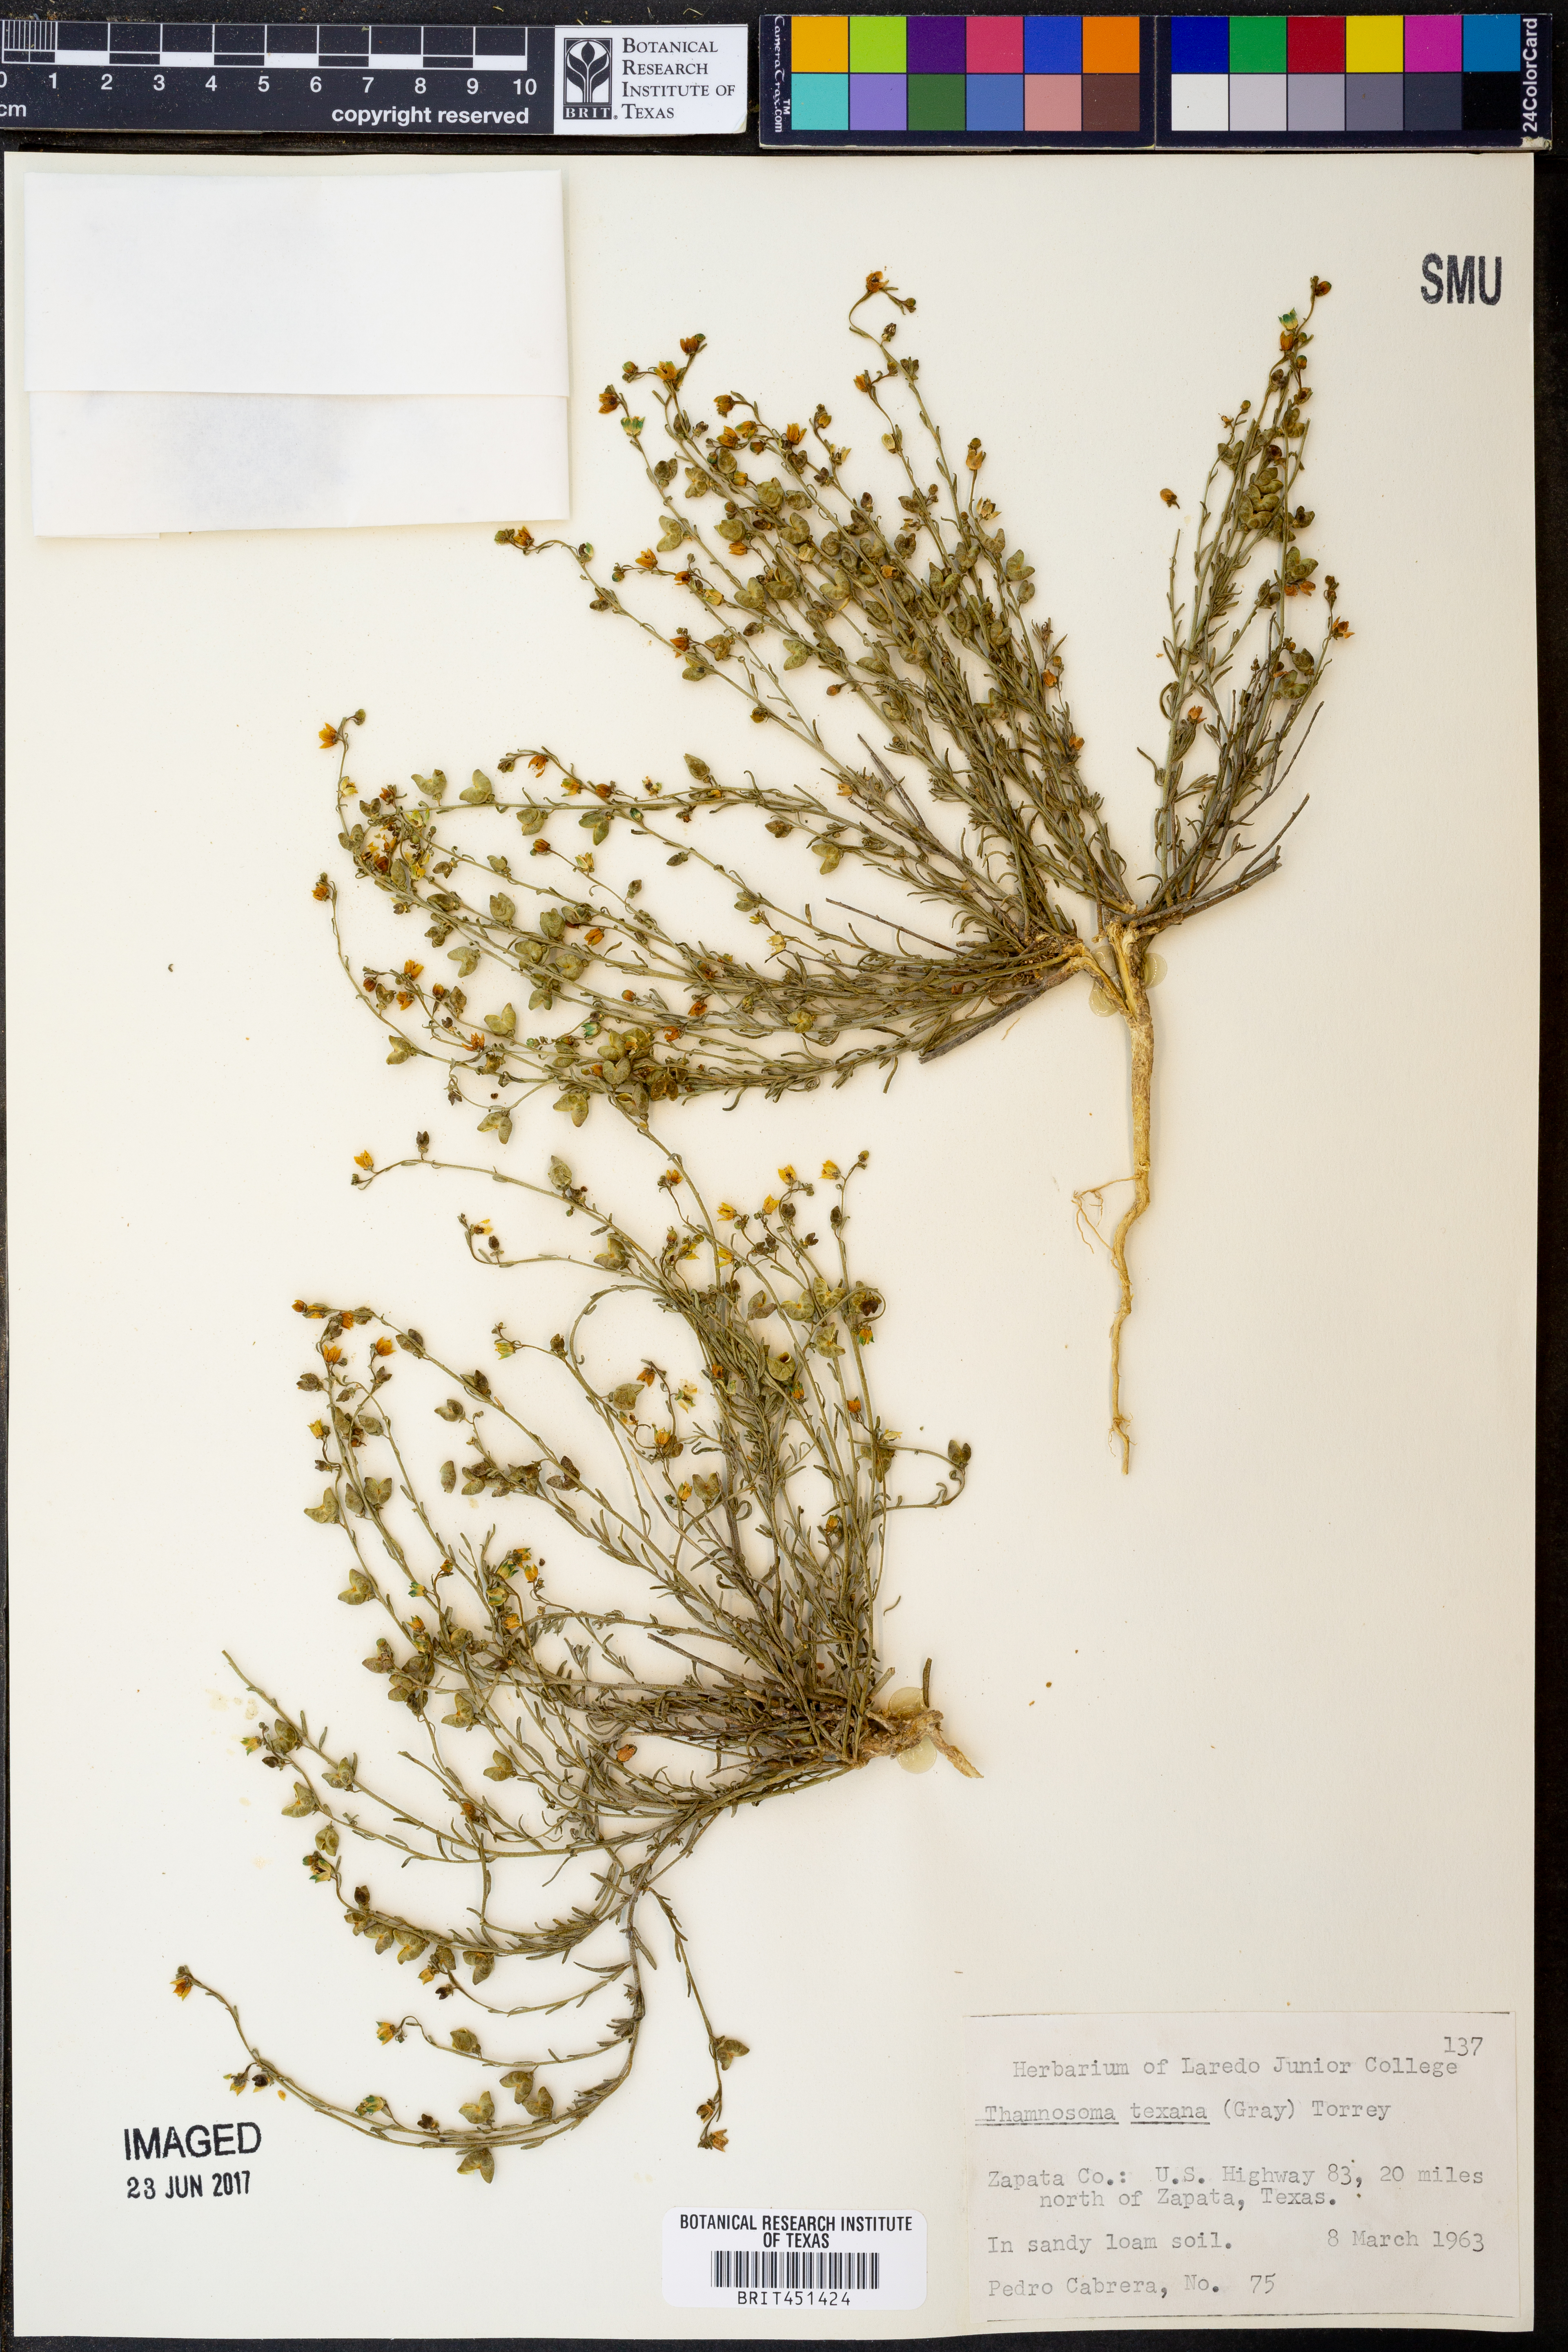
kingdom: Plantae
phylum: Tracheophyta
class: Magnoliopsida
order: Sapindales
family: Rutaceae
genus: Thamnosma
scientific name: Thamnosma texana
